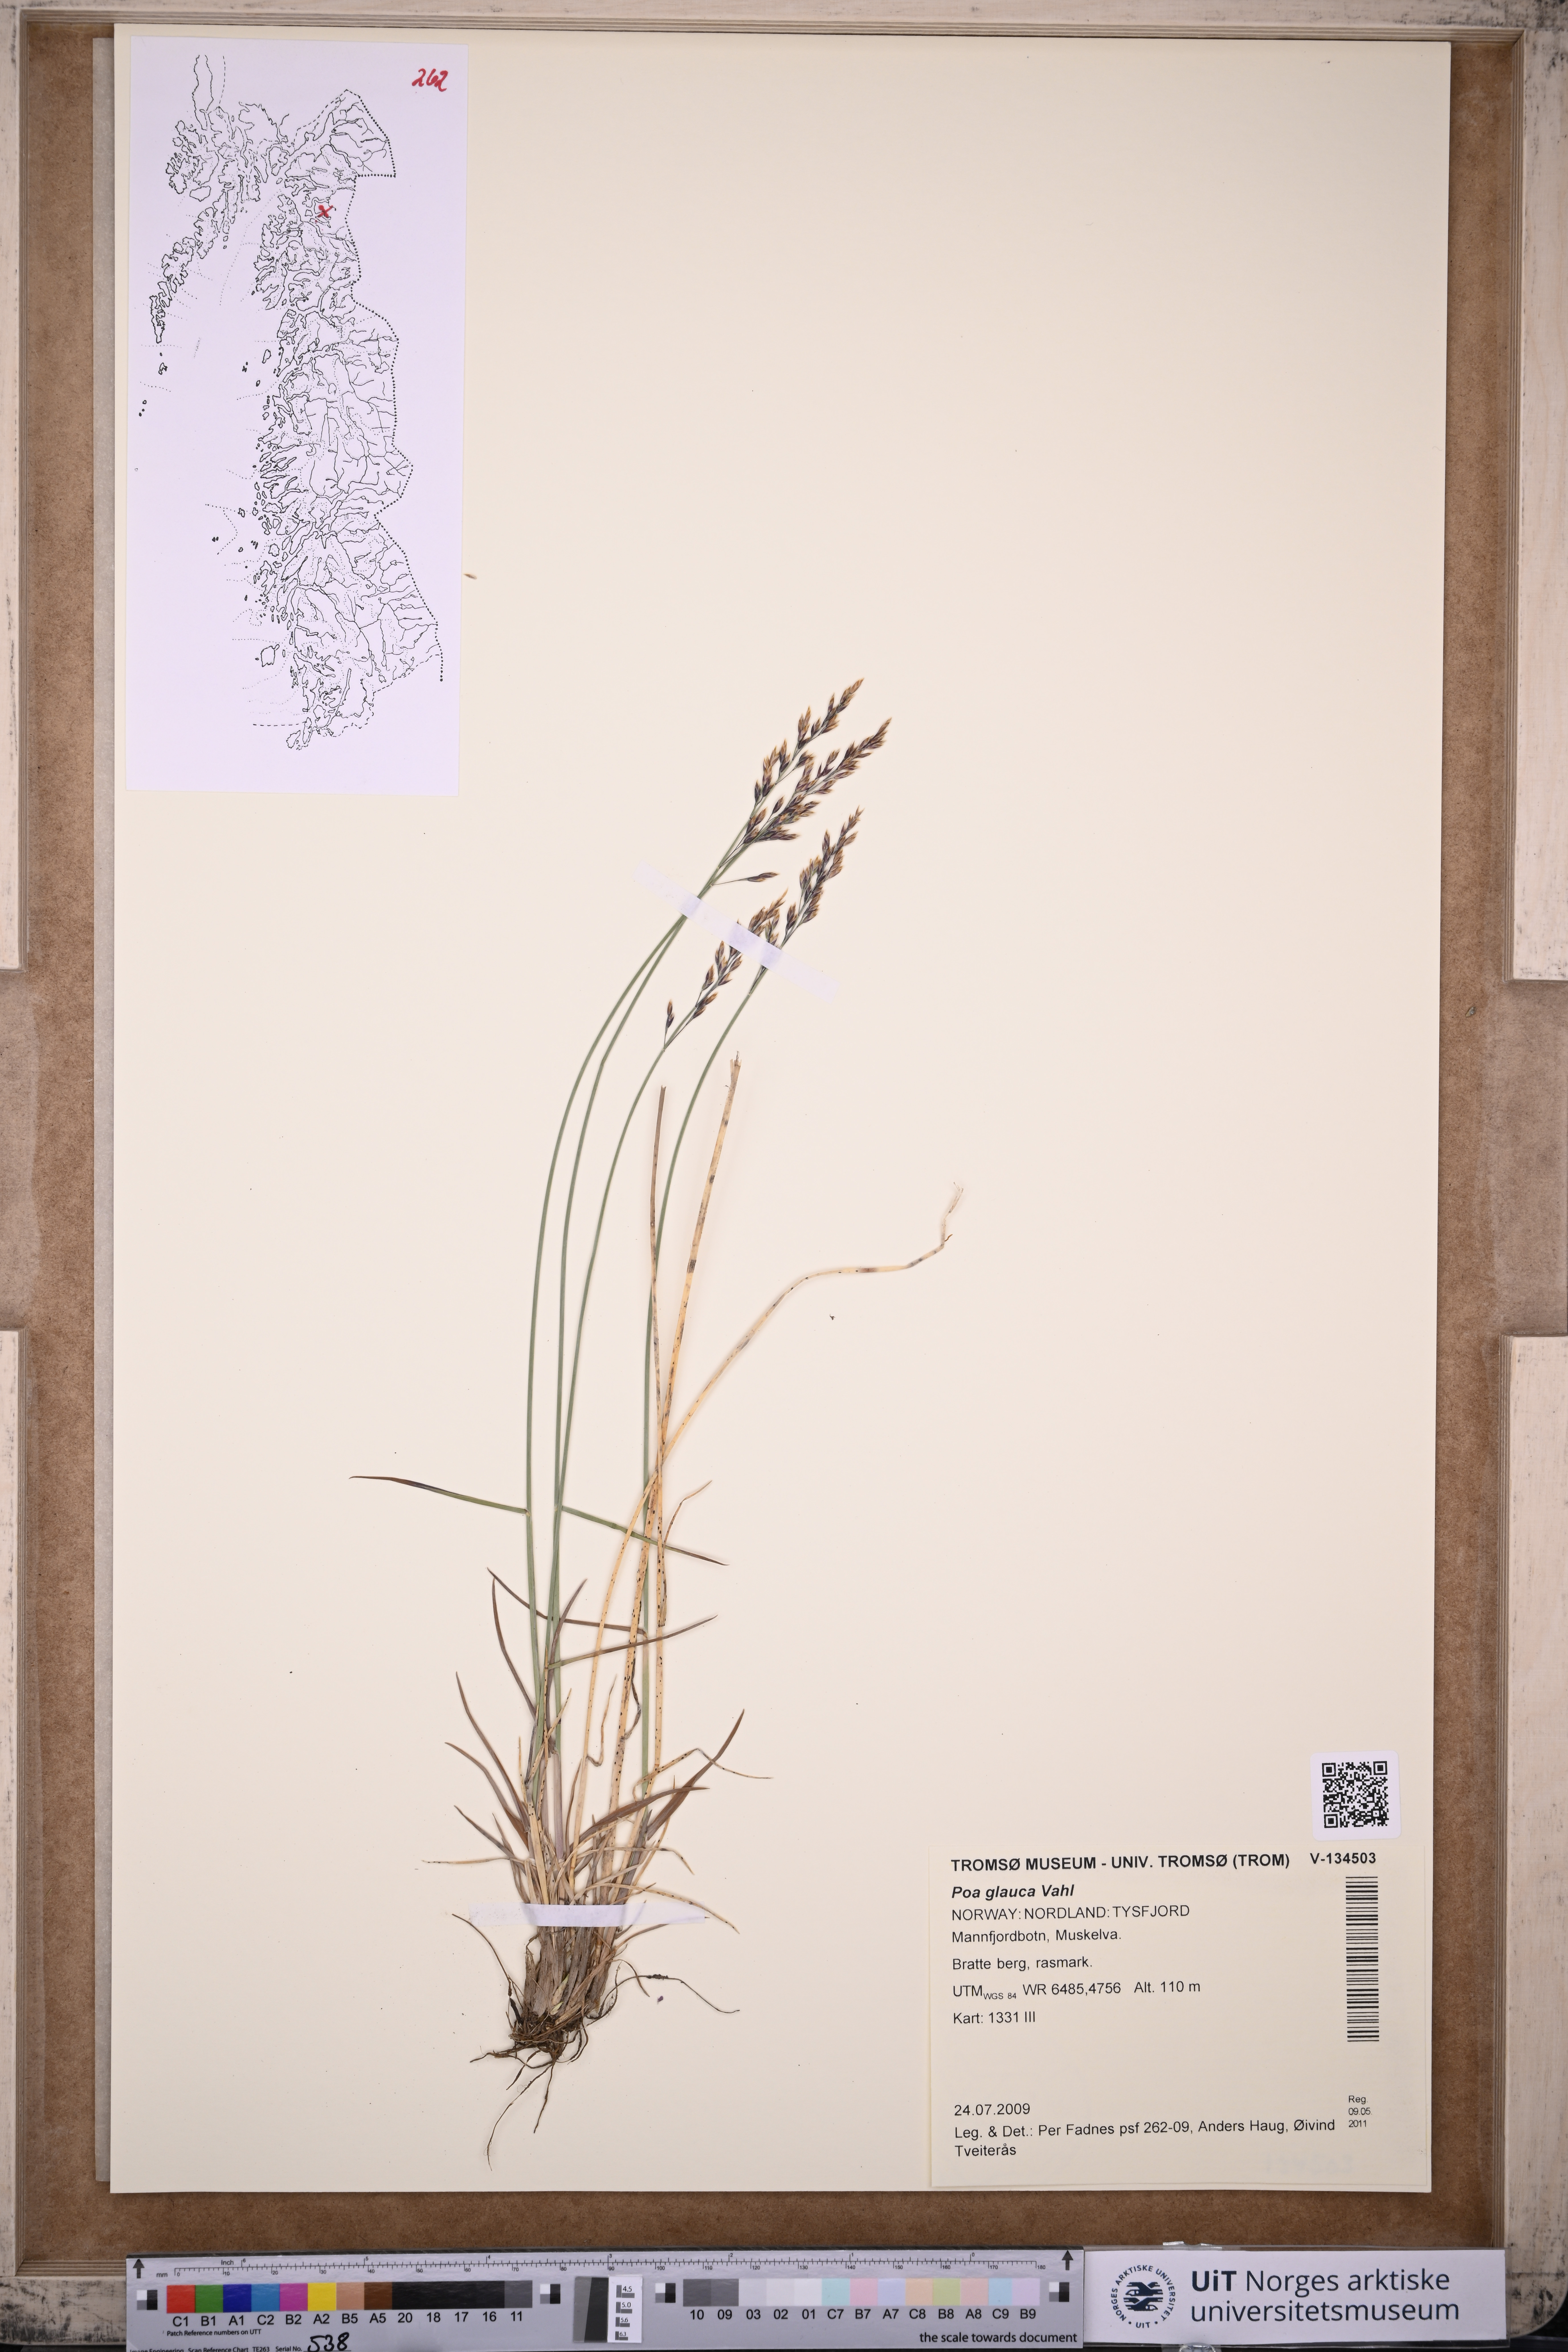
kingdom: Plantae
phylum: Tracheophyta
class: Liliopsida
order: Poales
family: Poaceae
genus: Poa
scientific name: Poa glauca
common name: Glaucous bluegrass
